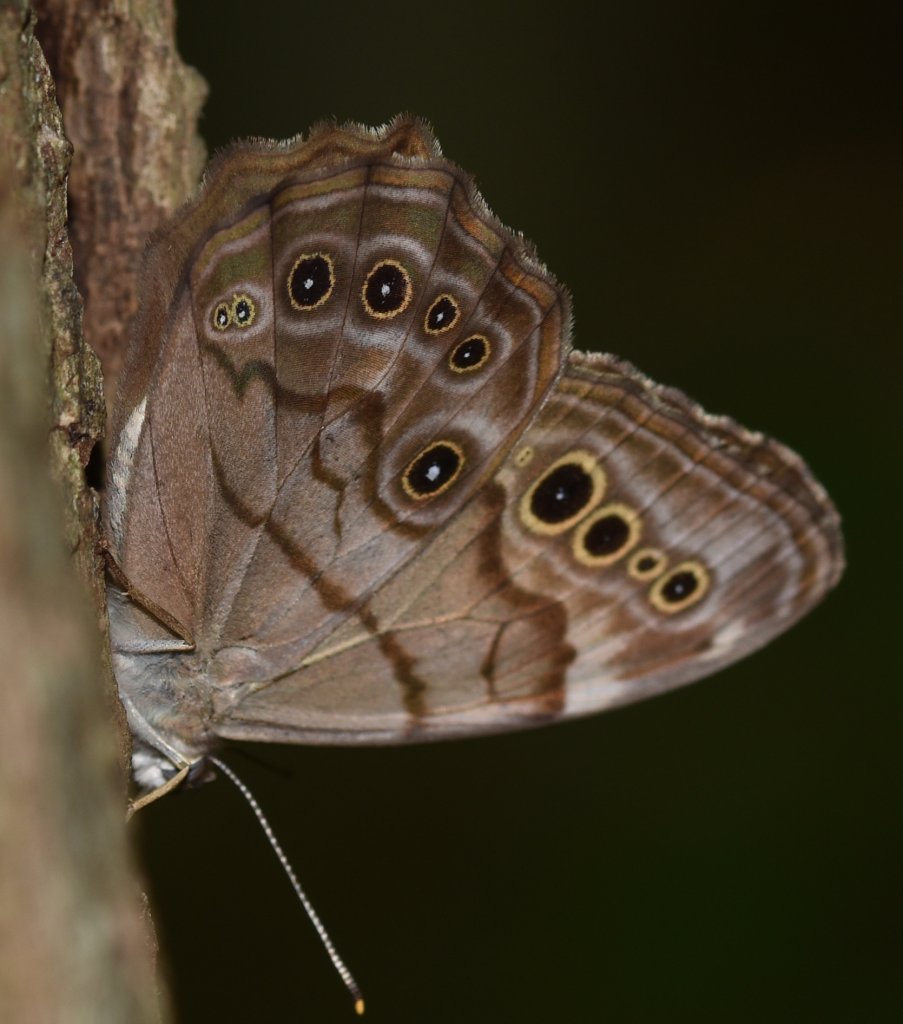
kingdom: Animalia
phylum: Arthropoda
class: Insecta
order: Lepidoptera
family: Nymphalidae
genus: Lethe
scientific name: Lethe anthedon
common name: Northern Pearly-Eye
